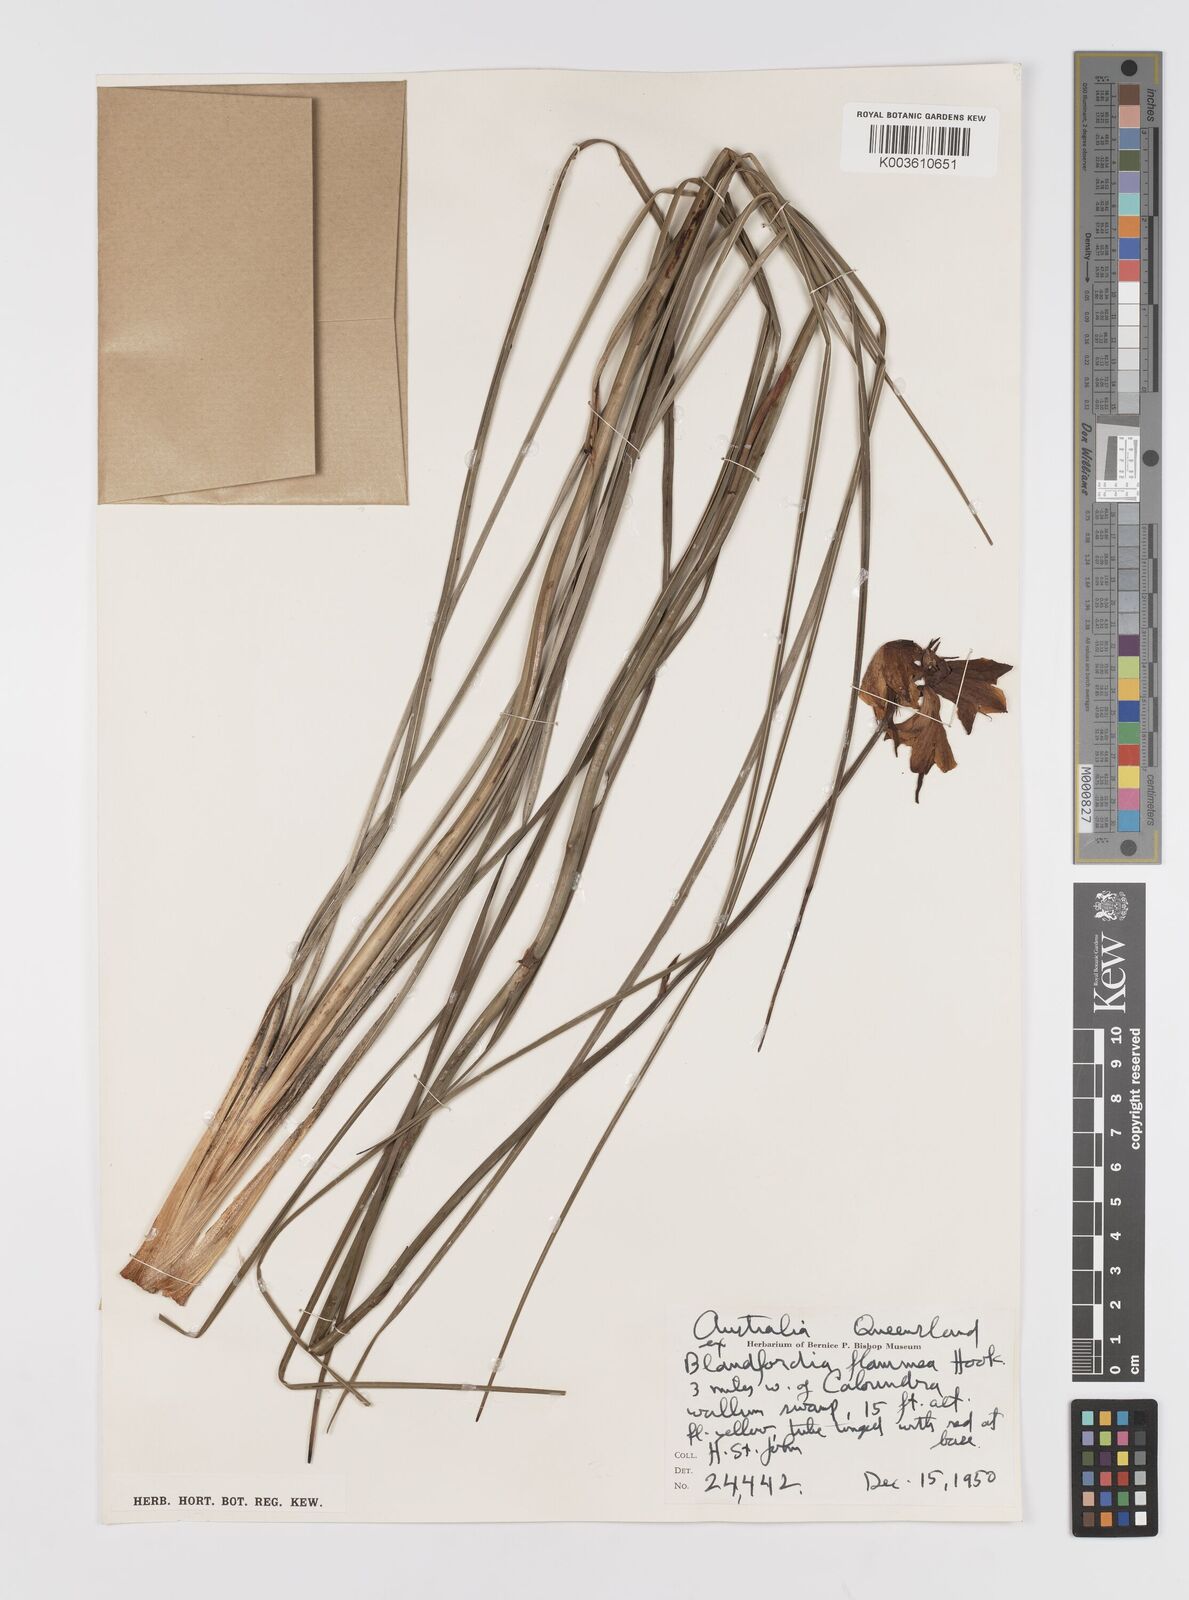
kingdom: Plantae
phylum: Tracheophyta
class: Liliopsida
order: Asparagales
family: Blandfordiaceae
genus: Blandfordia
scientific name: Blandfordia punicea
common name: Tasmanian christmas-bell
